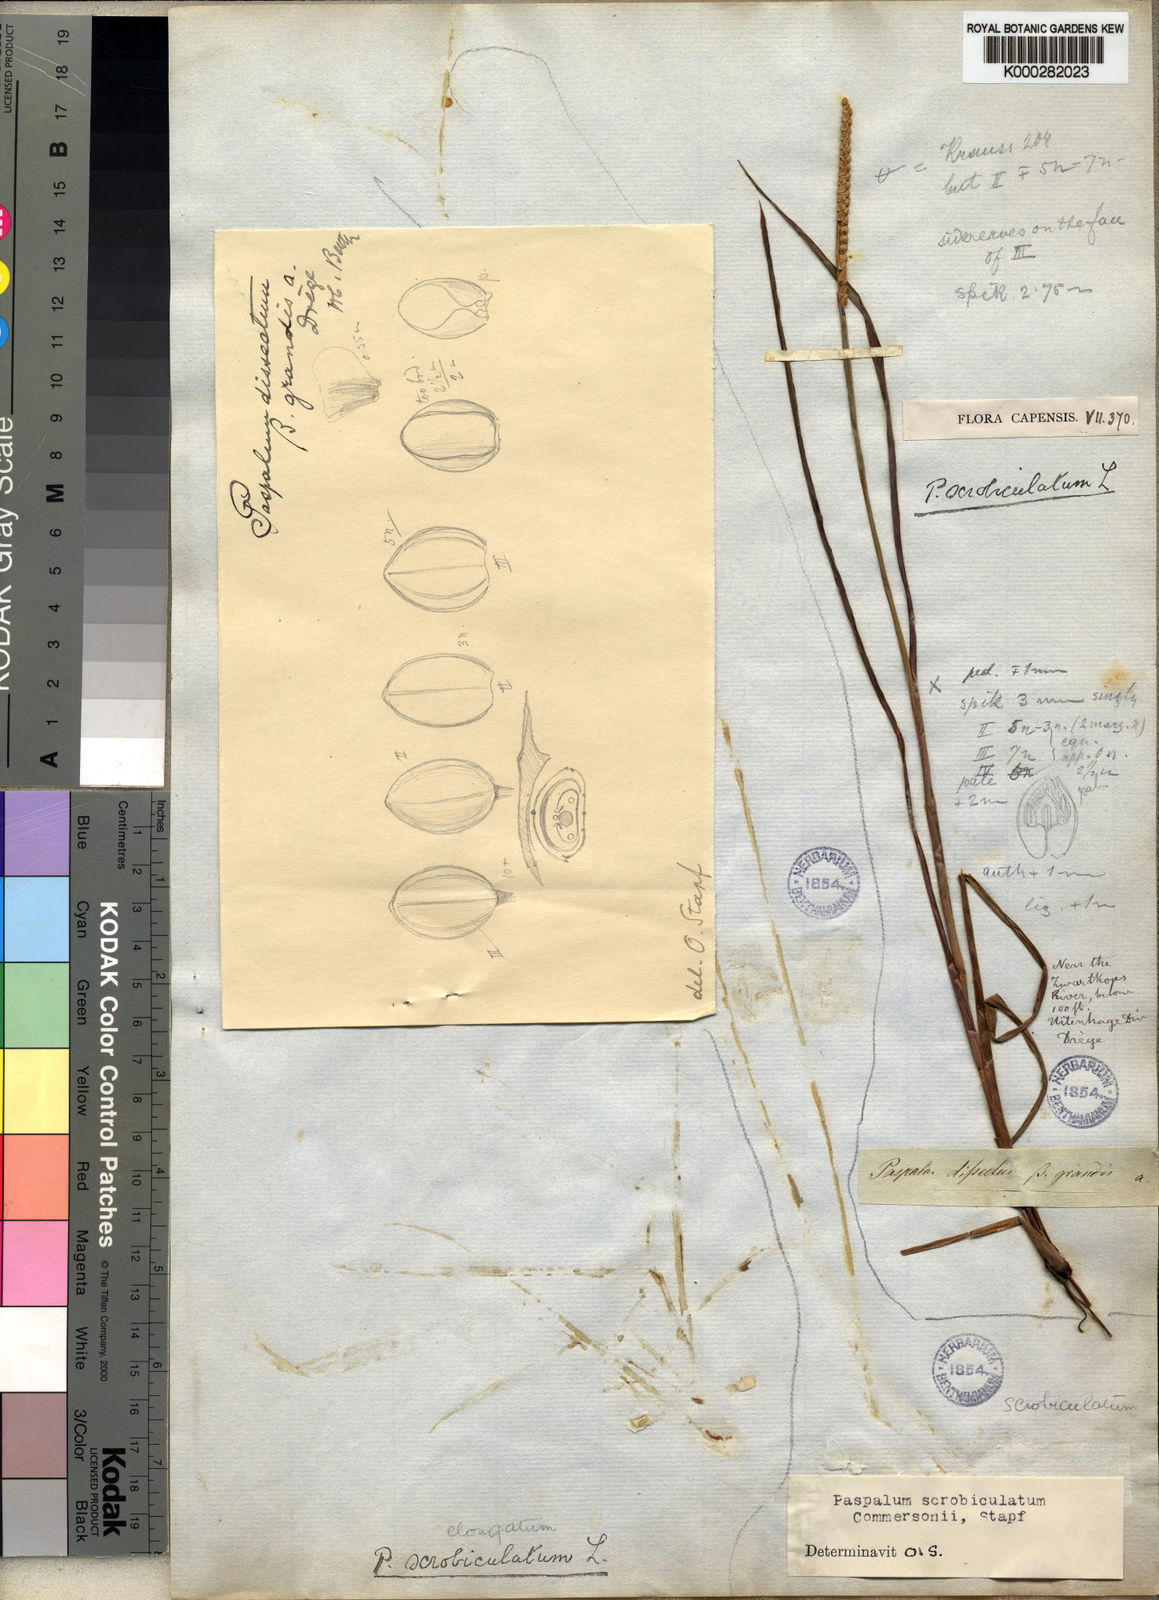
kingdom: Plantae
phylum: Tracheophyta
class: Liliopsida
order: Poales
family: Poaceae
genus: Paspalum
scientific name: Paspalum scrobiculatum
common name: Kodo millet
